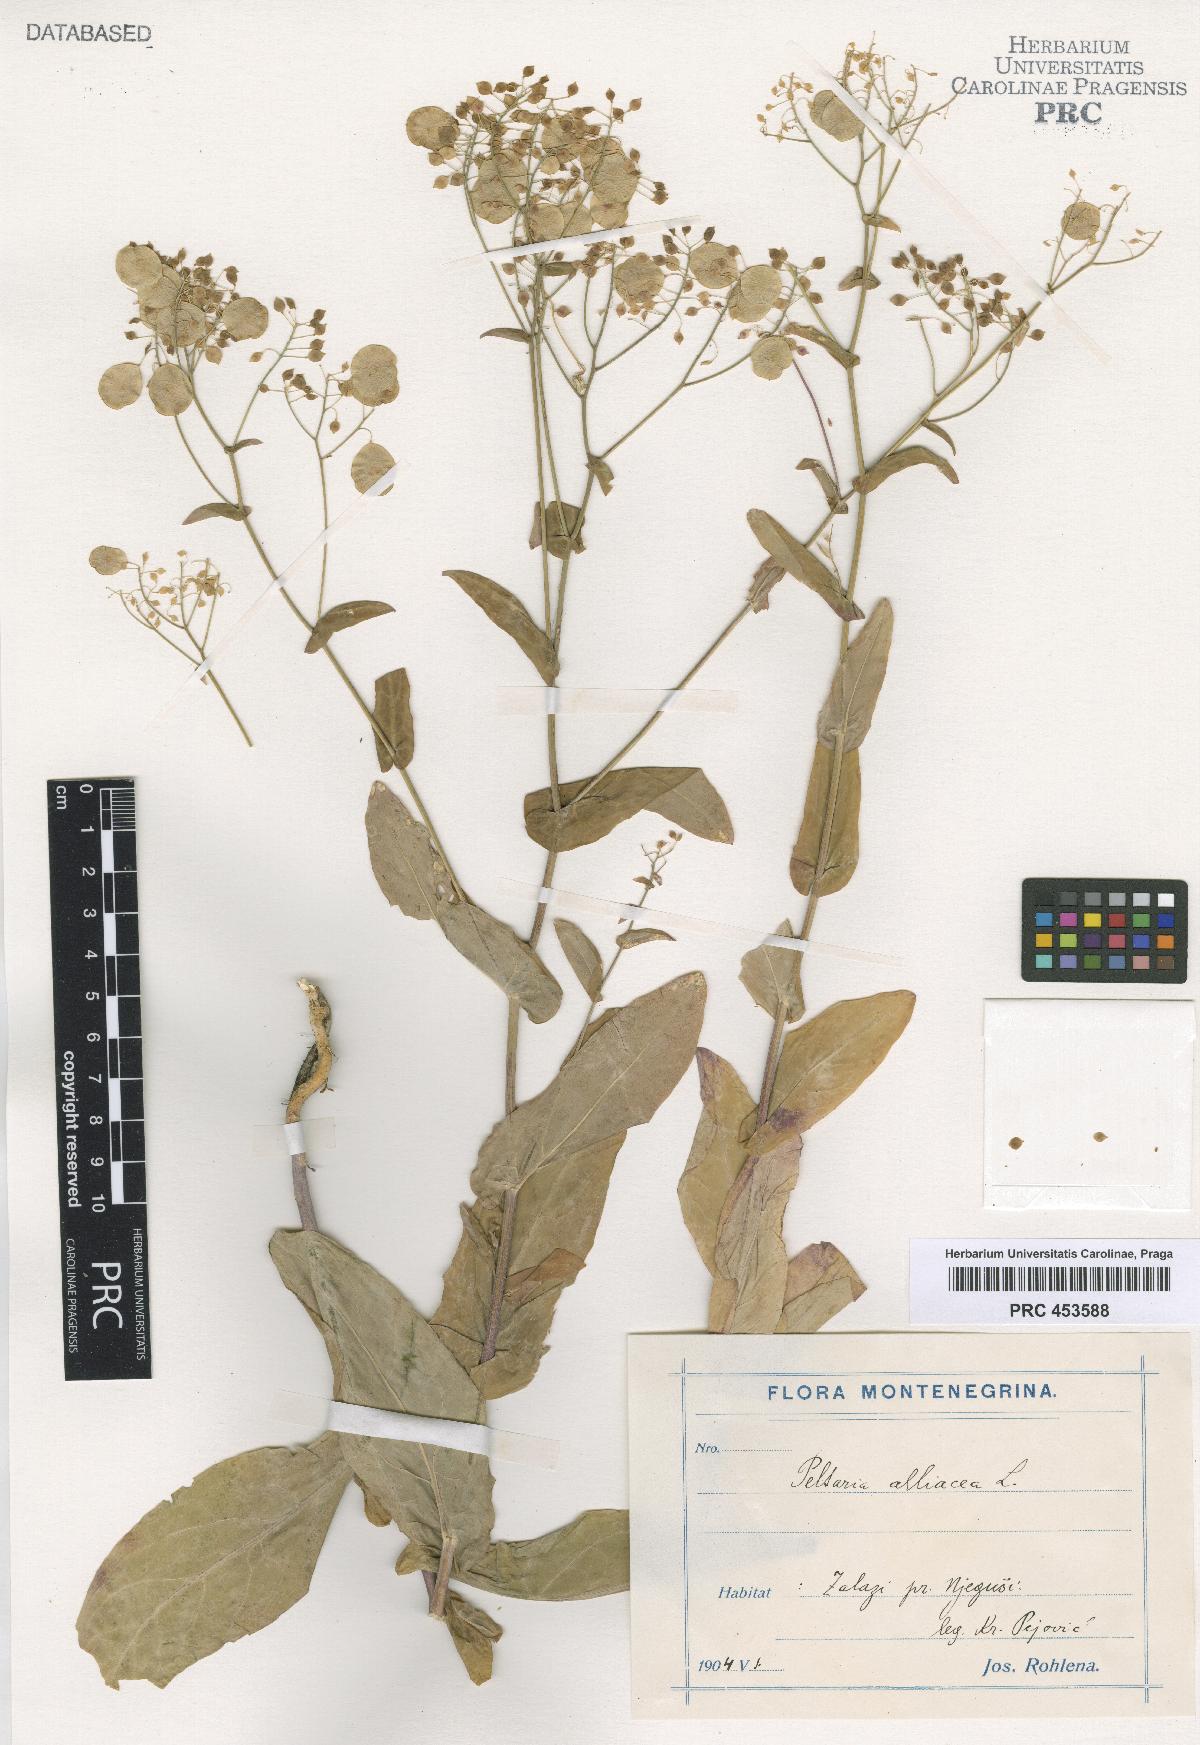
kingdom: Plantae
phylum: Tracheophyta
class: Magnoliopsida
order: Brassicales
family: Brassicaceae
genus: Peltaria
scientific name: Peltaria alliacea
